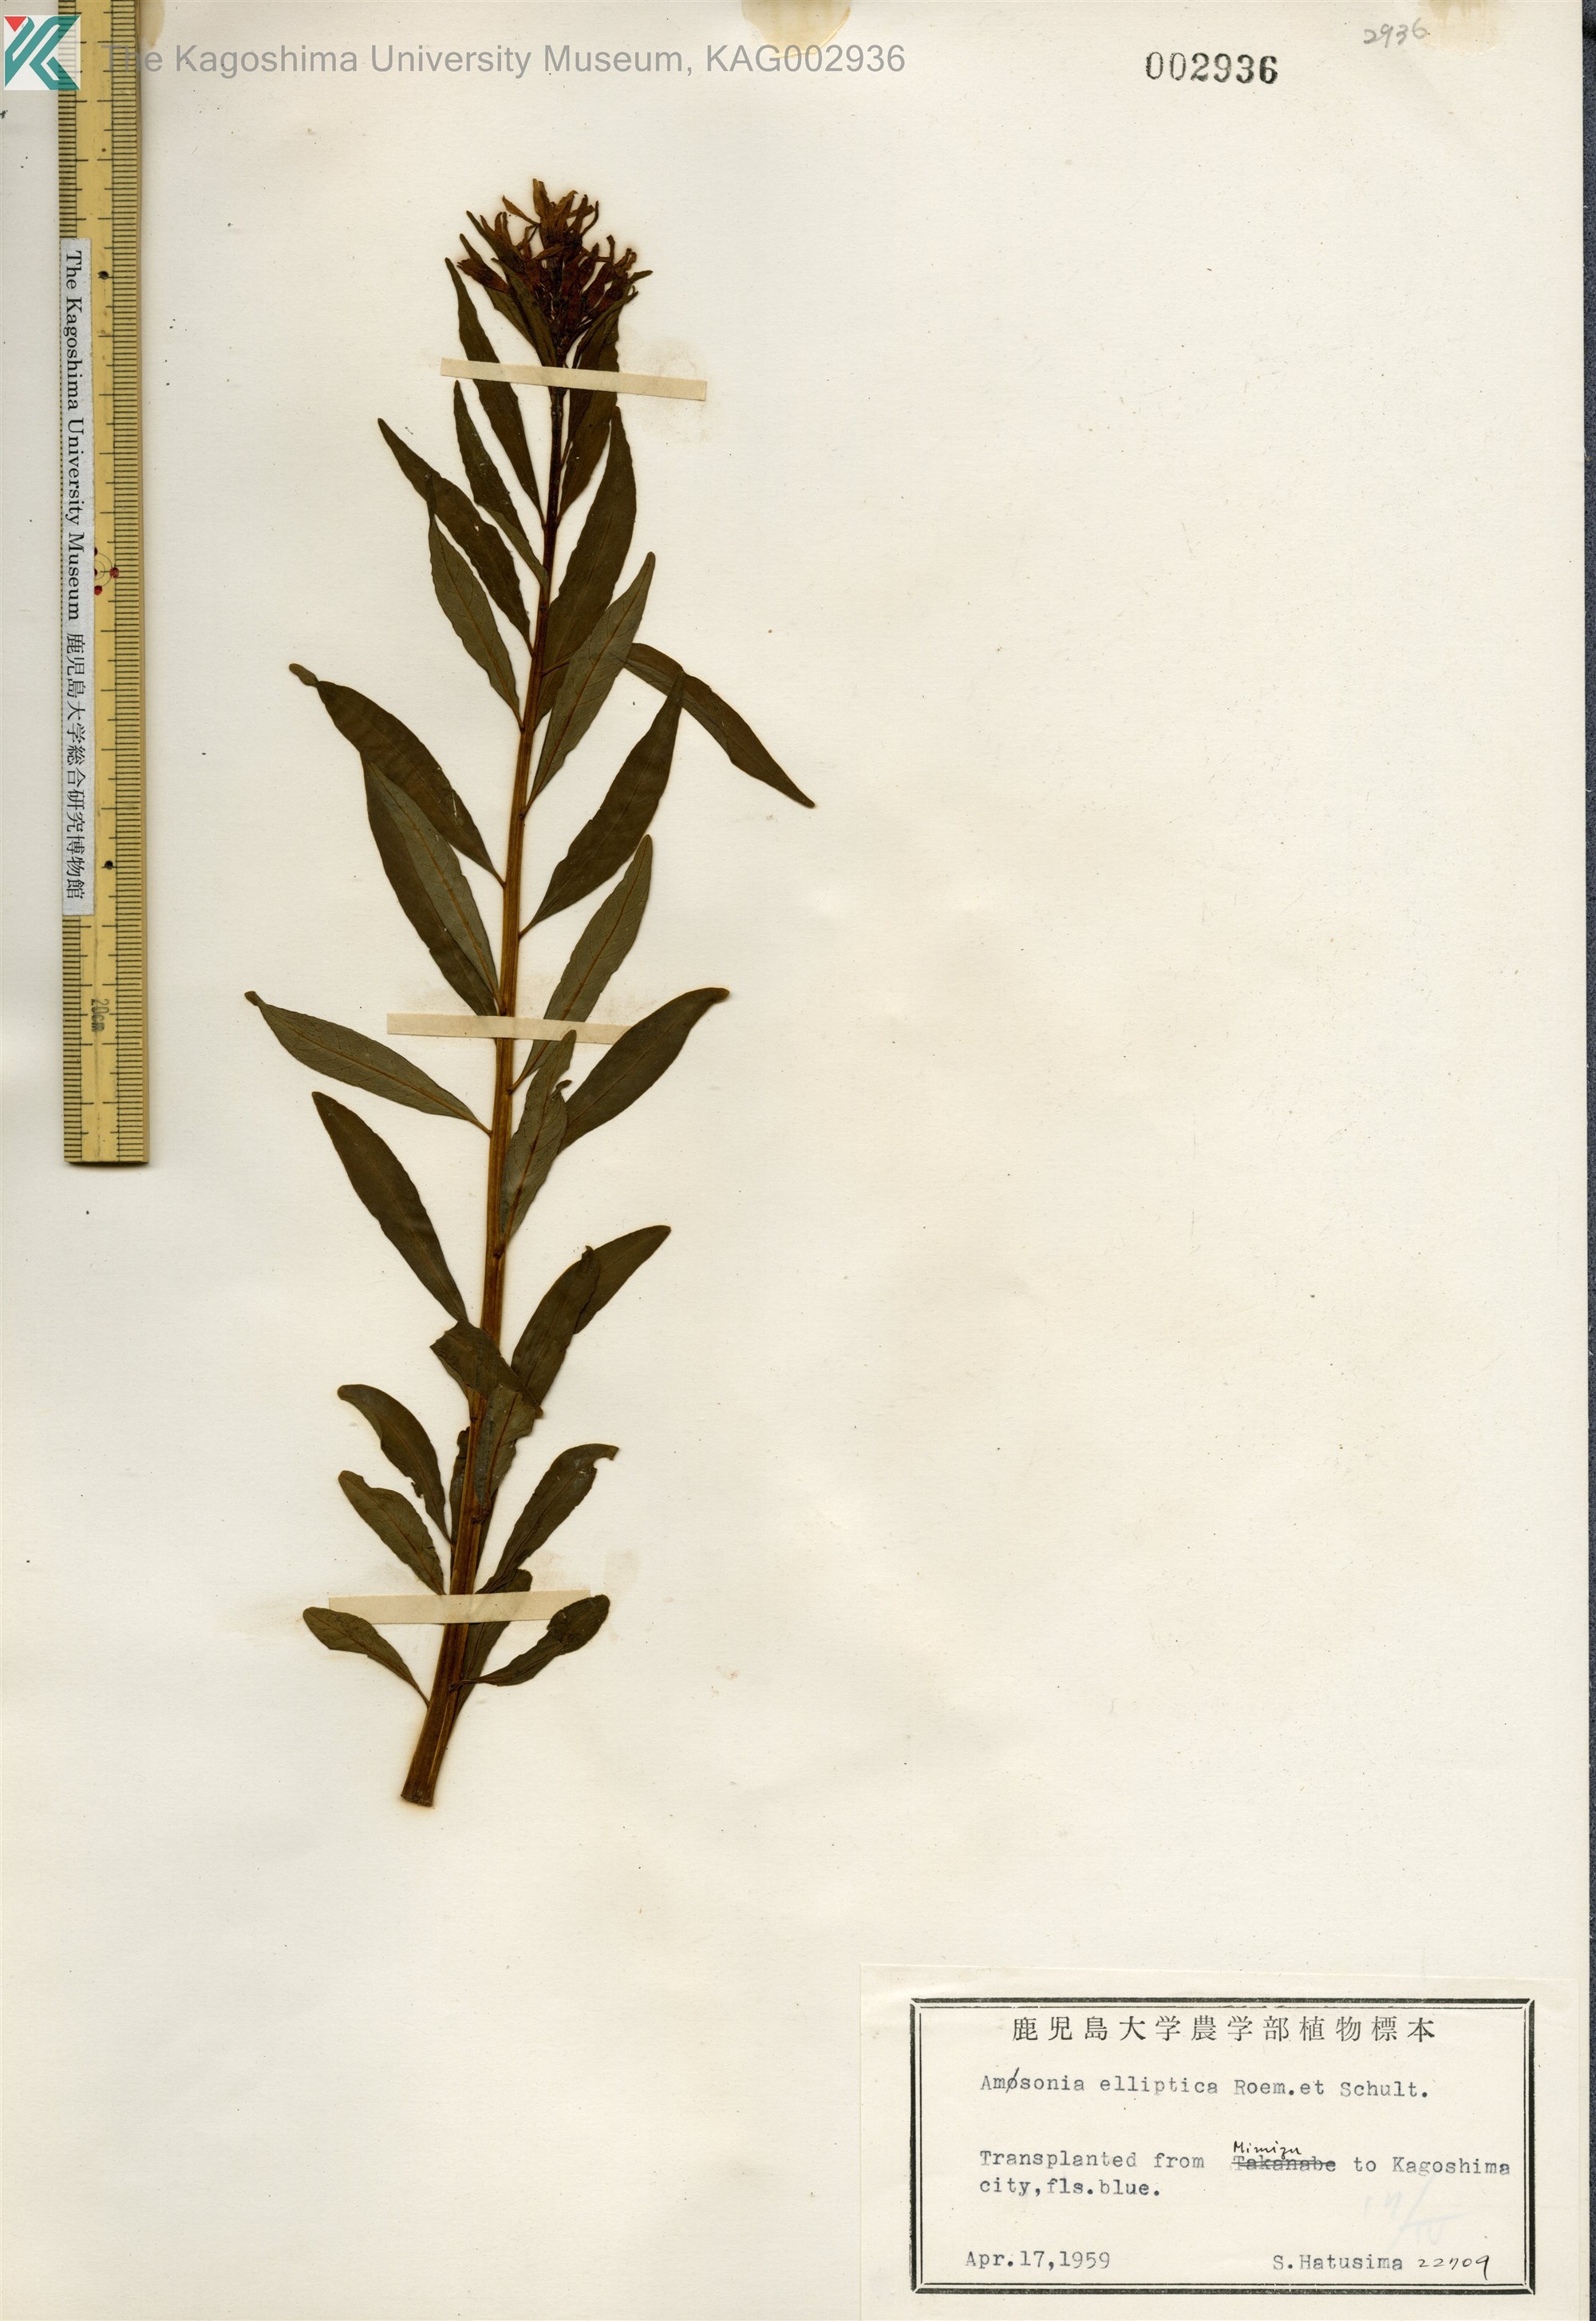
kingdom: Plantae
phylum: Tracheophyta
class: Magnoliopsida
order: Gentianales
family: Apocynaceae
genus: Amsonia
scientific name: Amsonia elliptica
